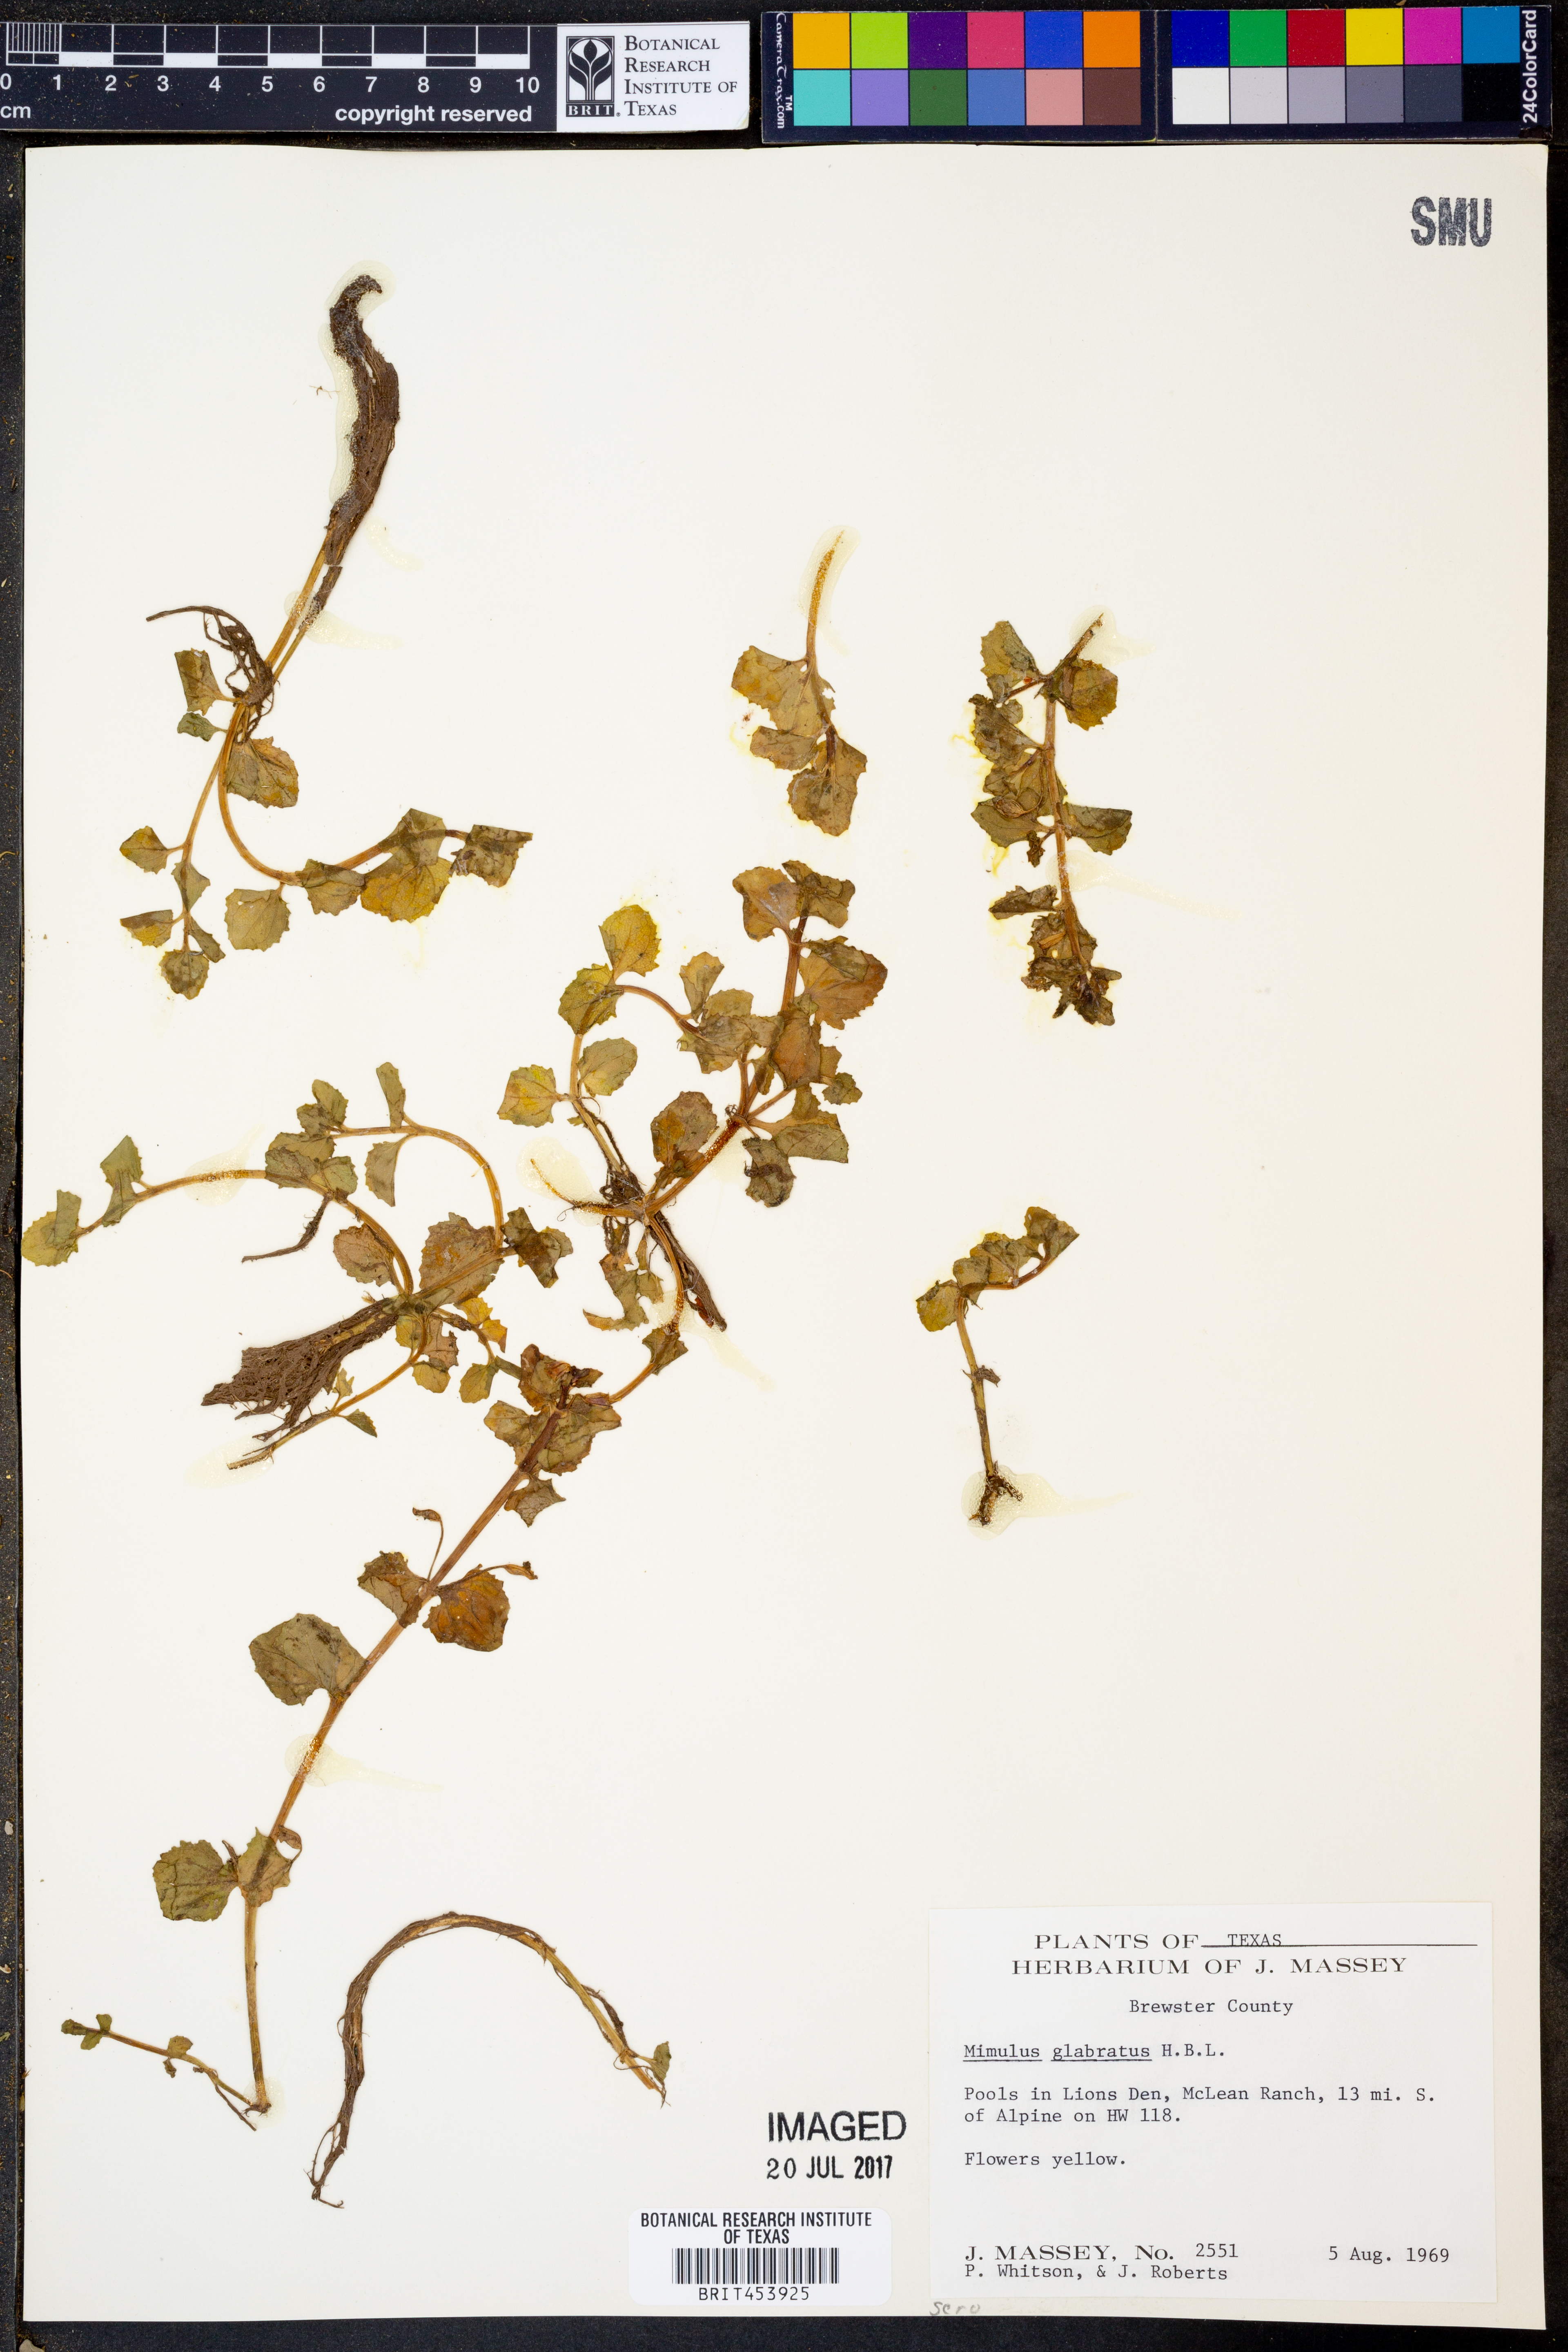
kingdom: Plantae
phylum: Tracheophyta
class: Magnoliopsida
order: Lamiales
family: Phrymaceae
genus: Erythranthe
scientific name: Erythranthe glabrata
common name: Round-leaved monkeyflower
